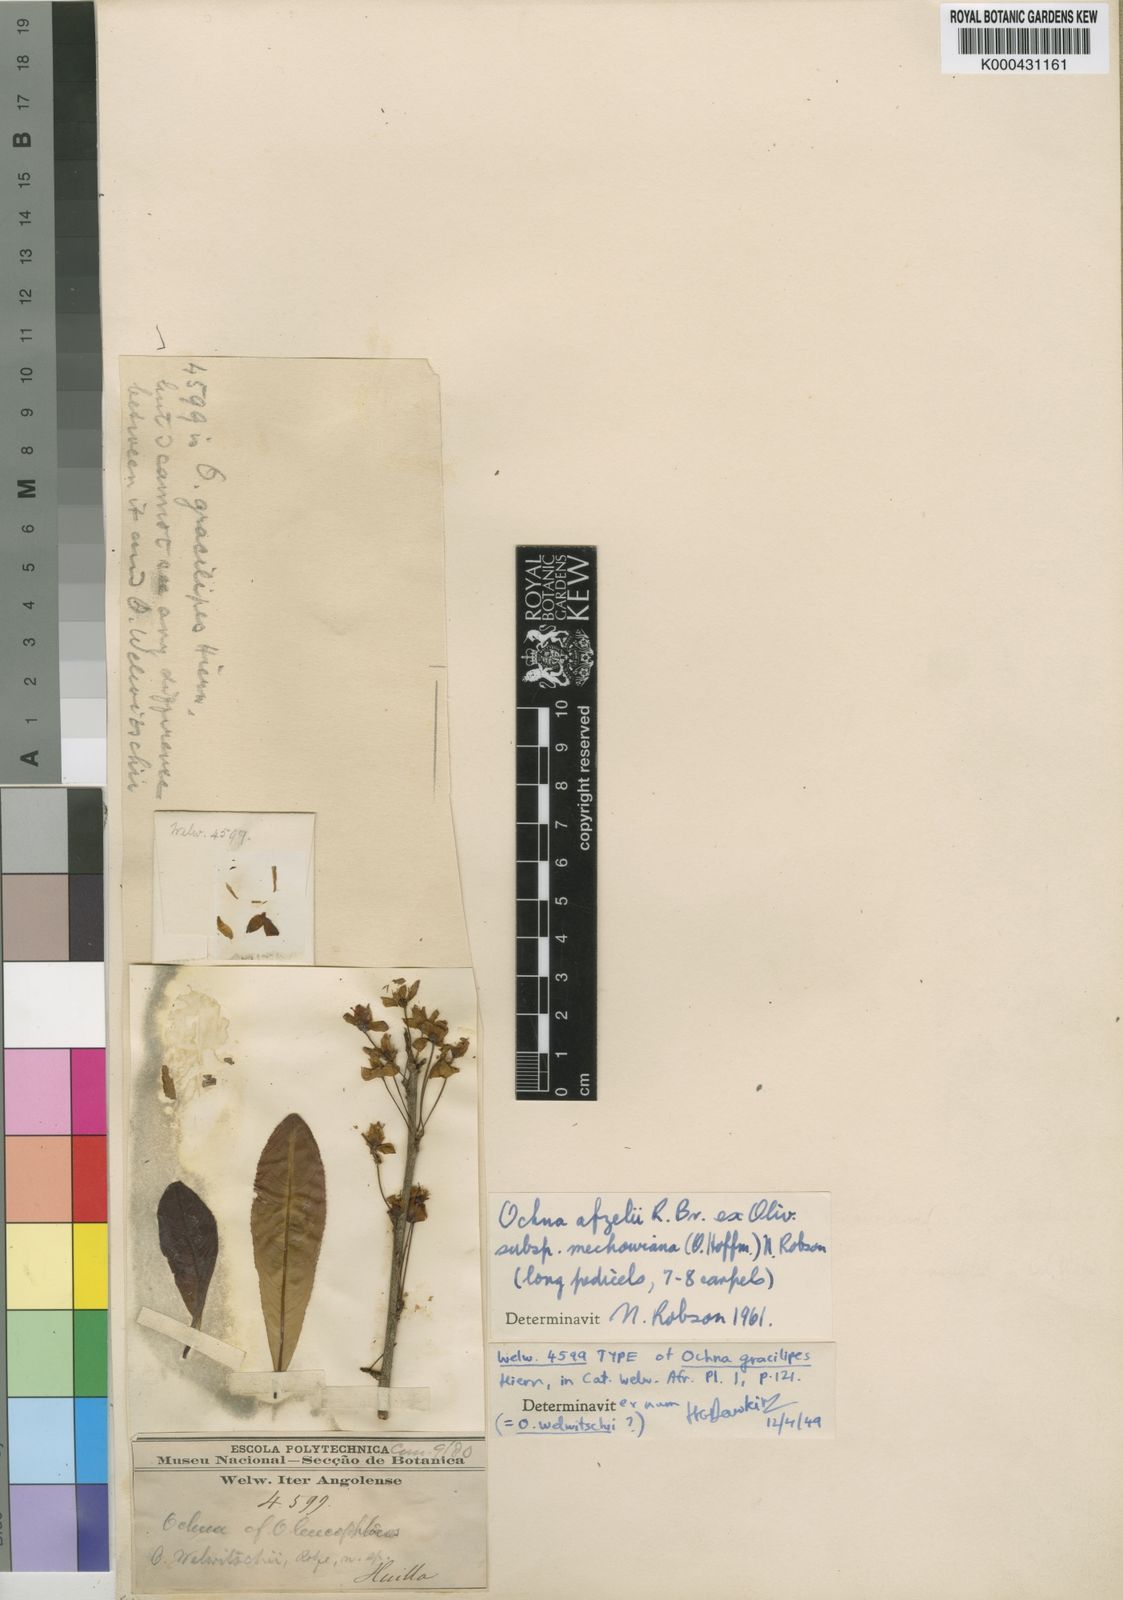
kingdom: Plantae
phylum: Tracheophyta
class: Magnoliopsida
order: Malpighiales
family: Ochnaceae
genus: Ochna
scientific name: Ochna afzelii
